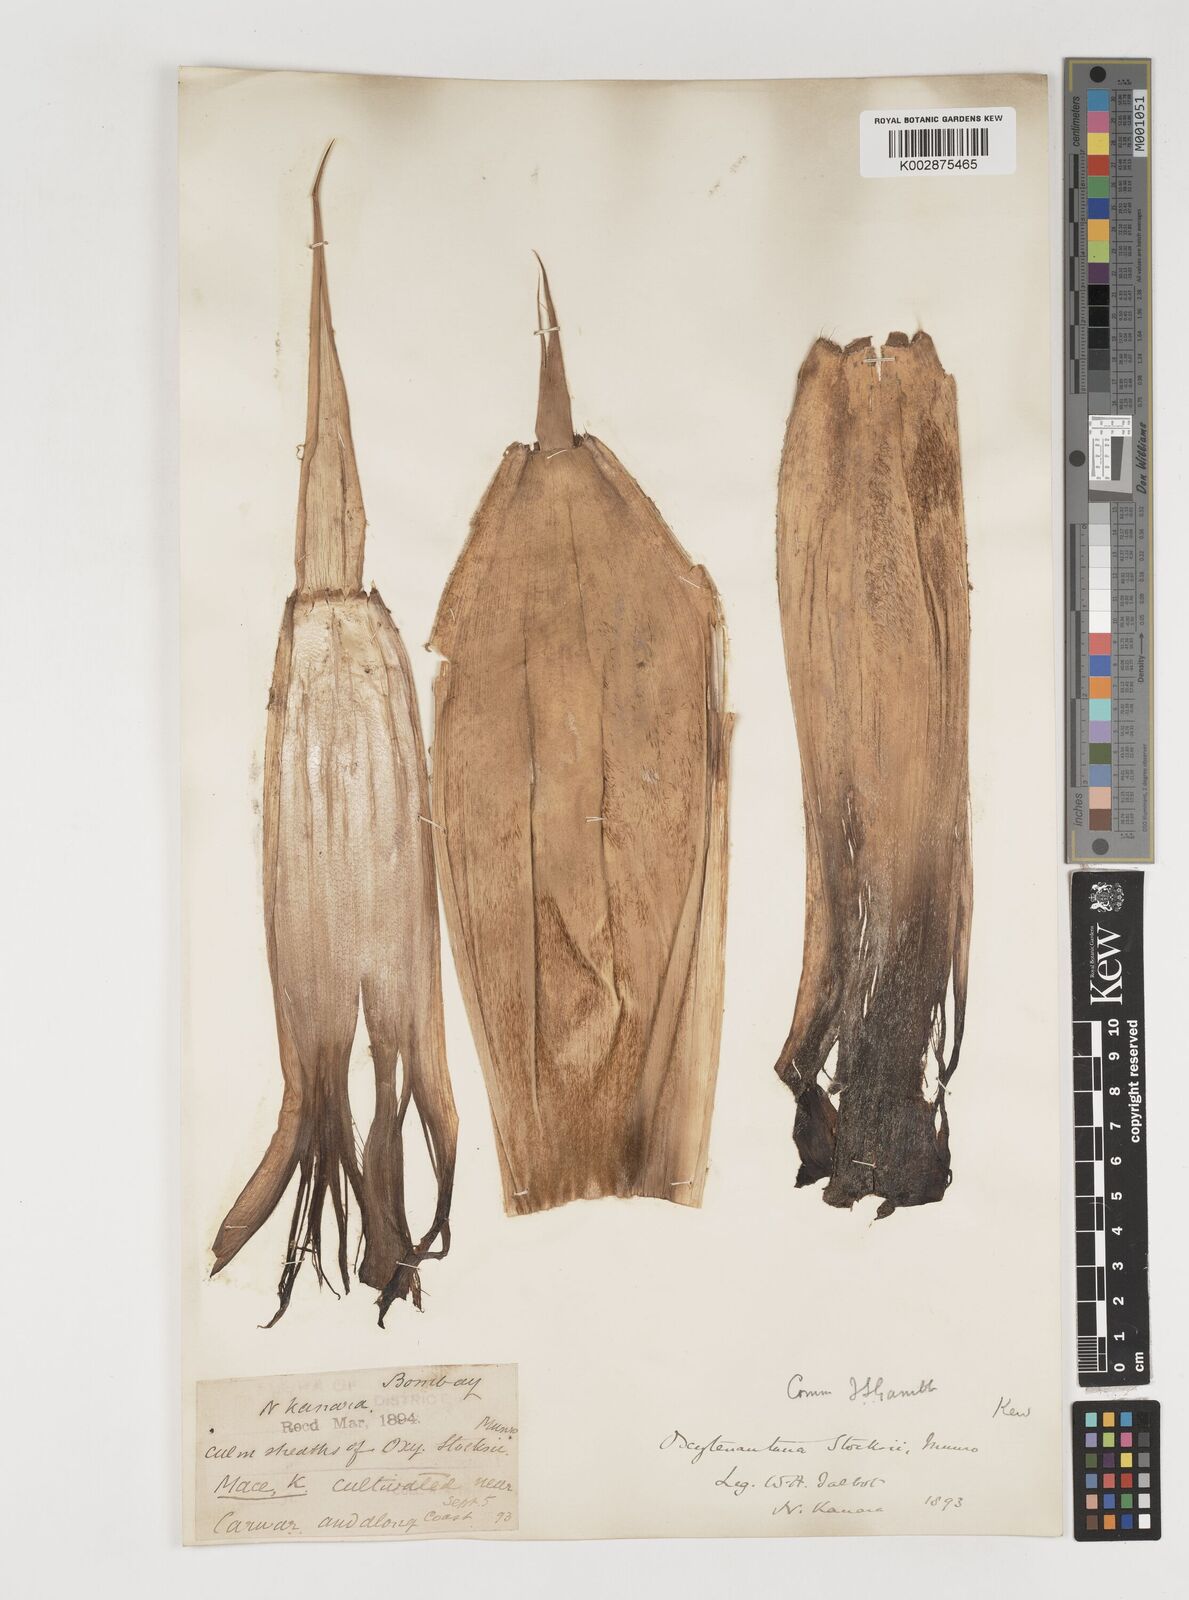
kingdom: Plantae
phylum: Tracheophyta
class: Liliopsida
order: Poales
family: Poaceae
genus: Pseudoxytenanthera
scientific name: Pseudoxytenanthera stocksii
